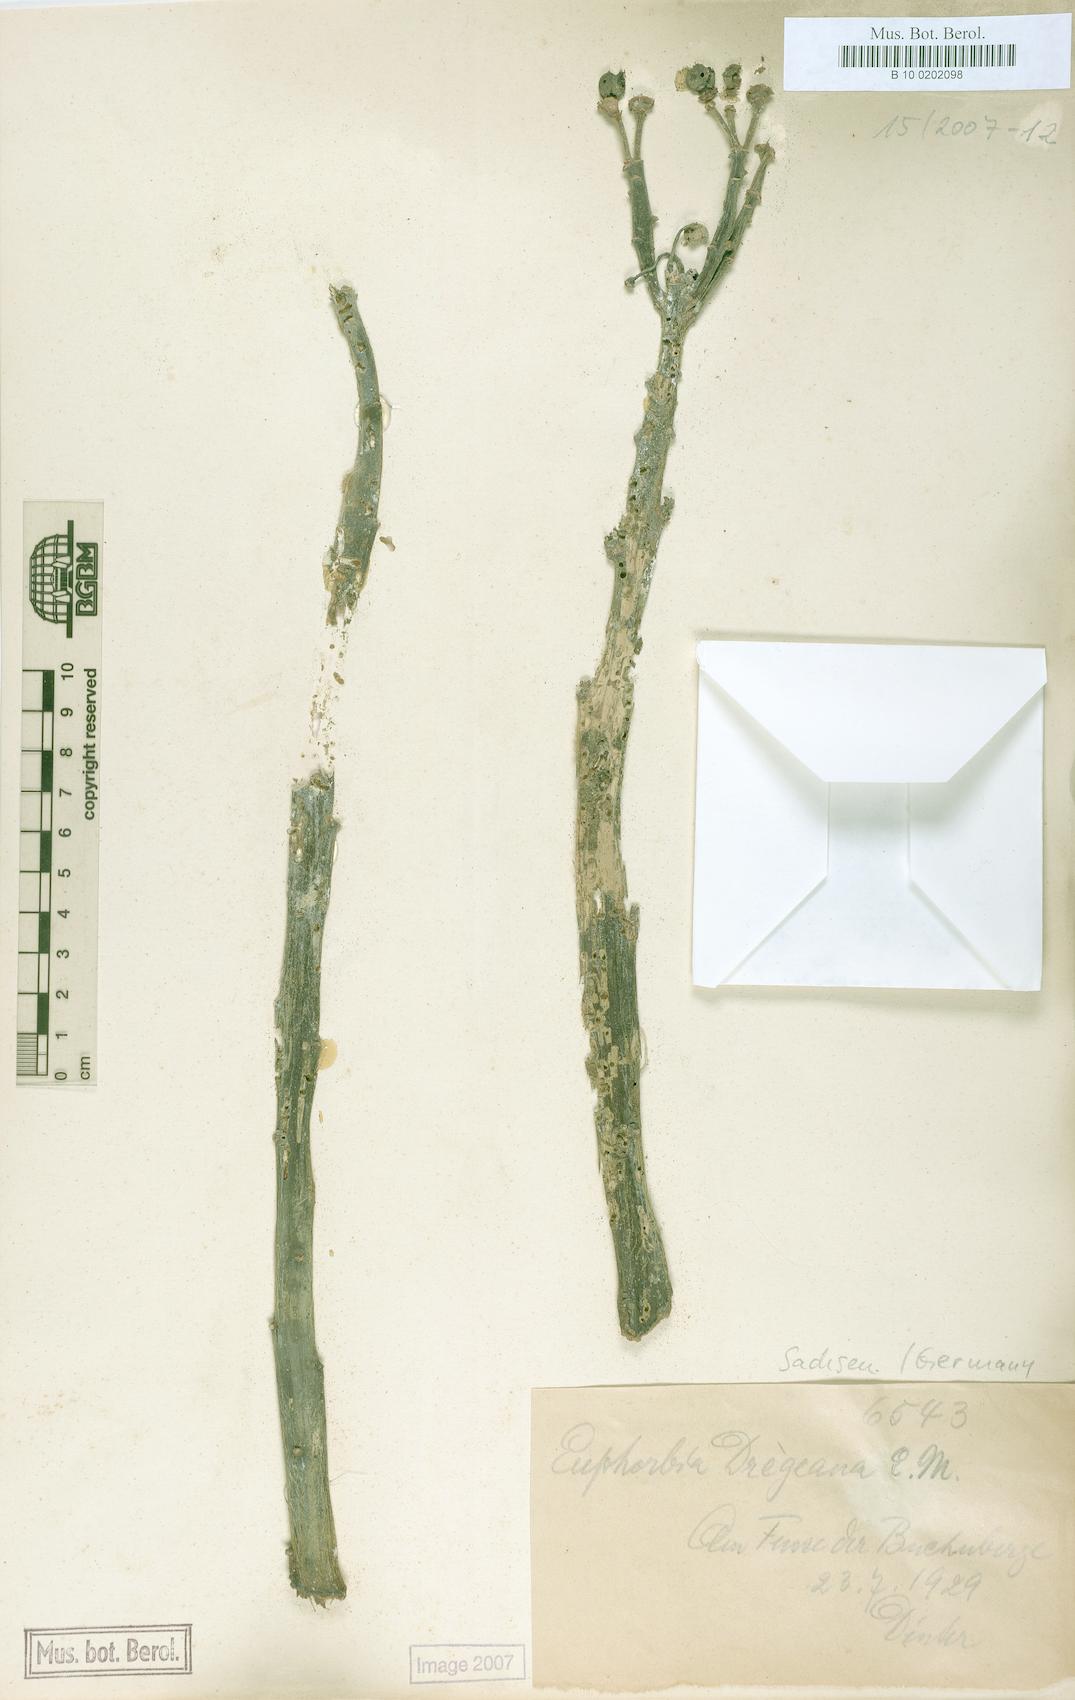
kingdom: Plantae
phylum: Tracheophyta
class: Magnoliopsida
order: Malpighiales
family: Euphorbiaceae
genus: Euphorbia
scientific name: Euphorbia dregeana
